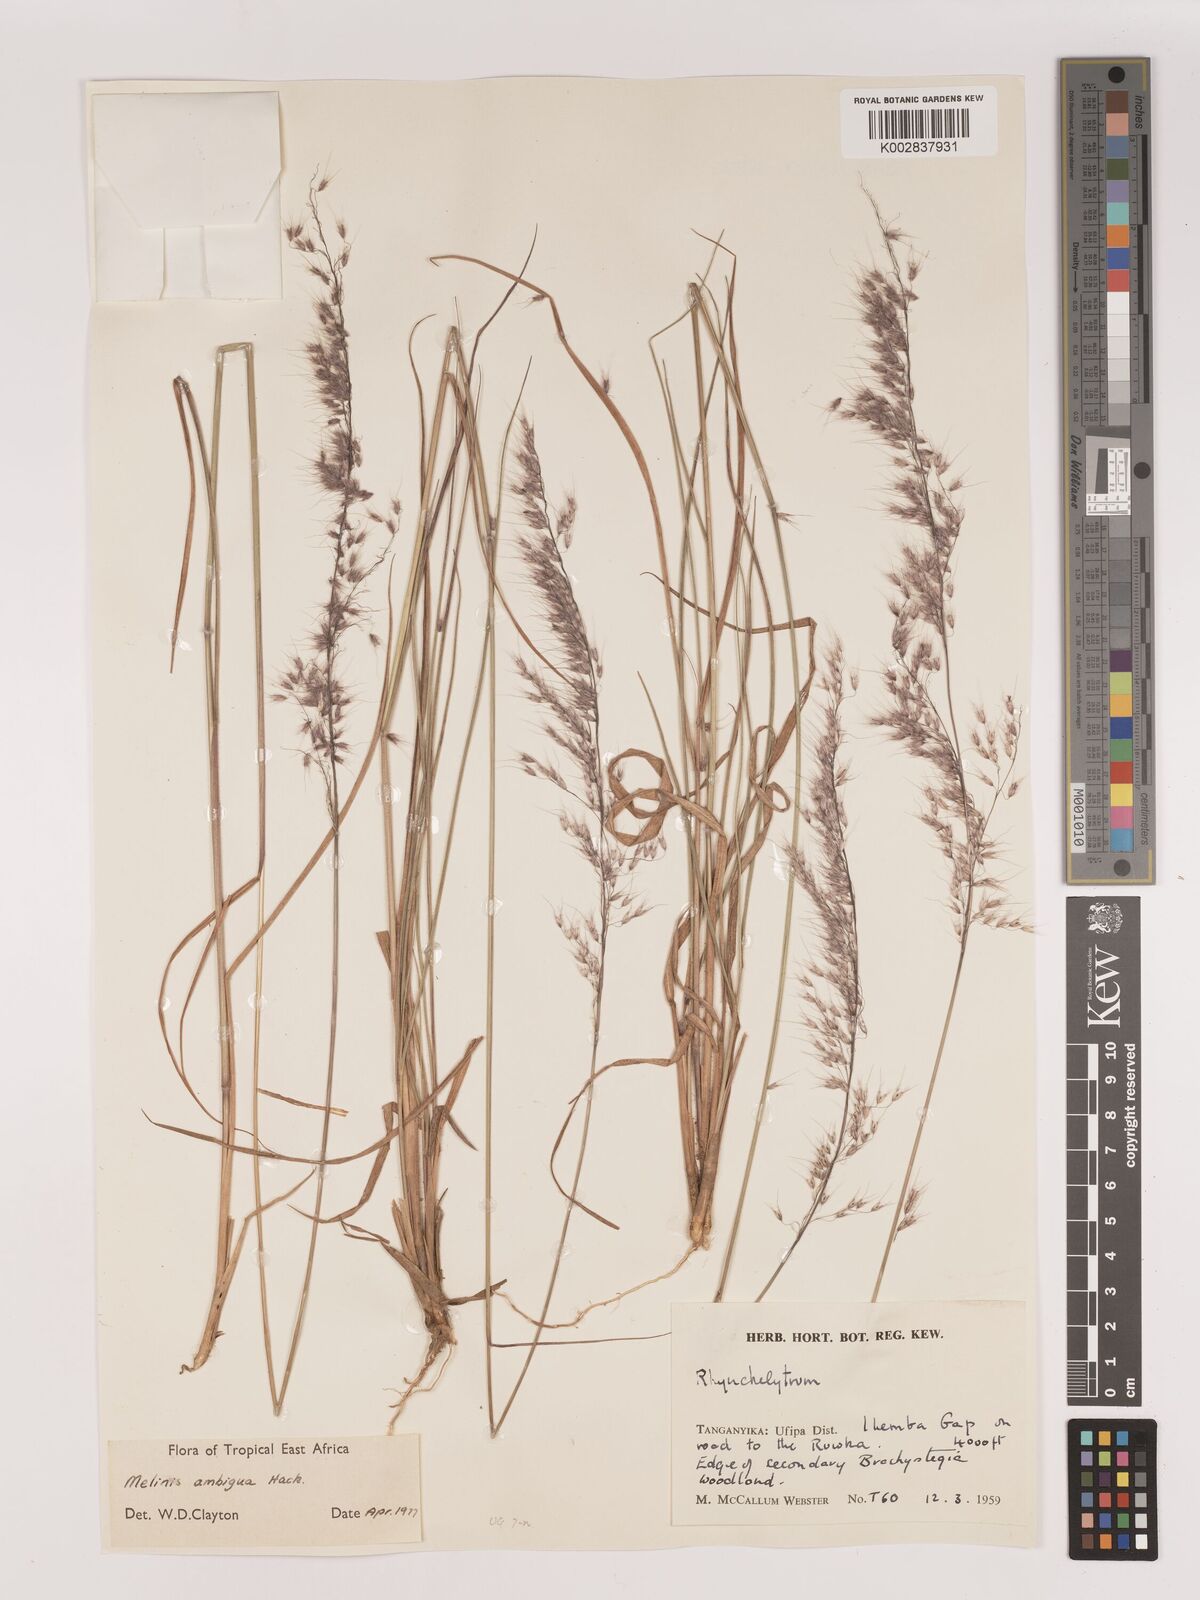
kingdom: Plantae
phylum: Tracheophyta
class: Liliopsida
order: Poales
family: Poaceae
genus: Melinis
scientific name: Melinis ambigua
